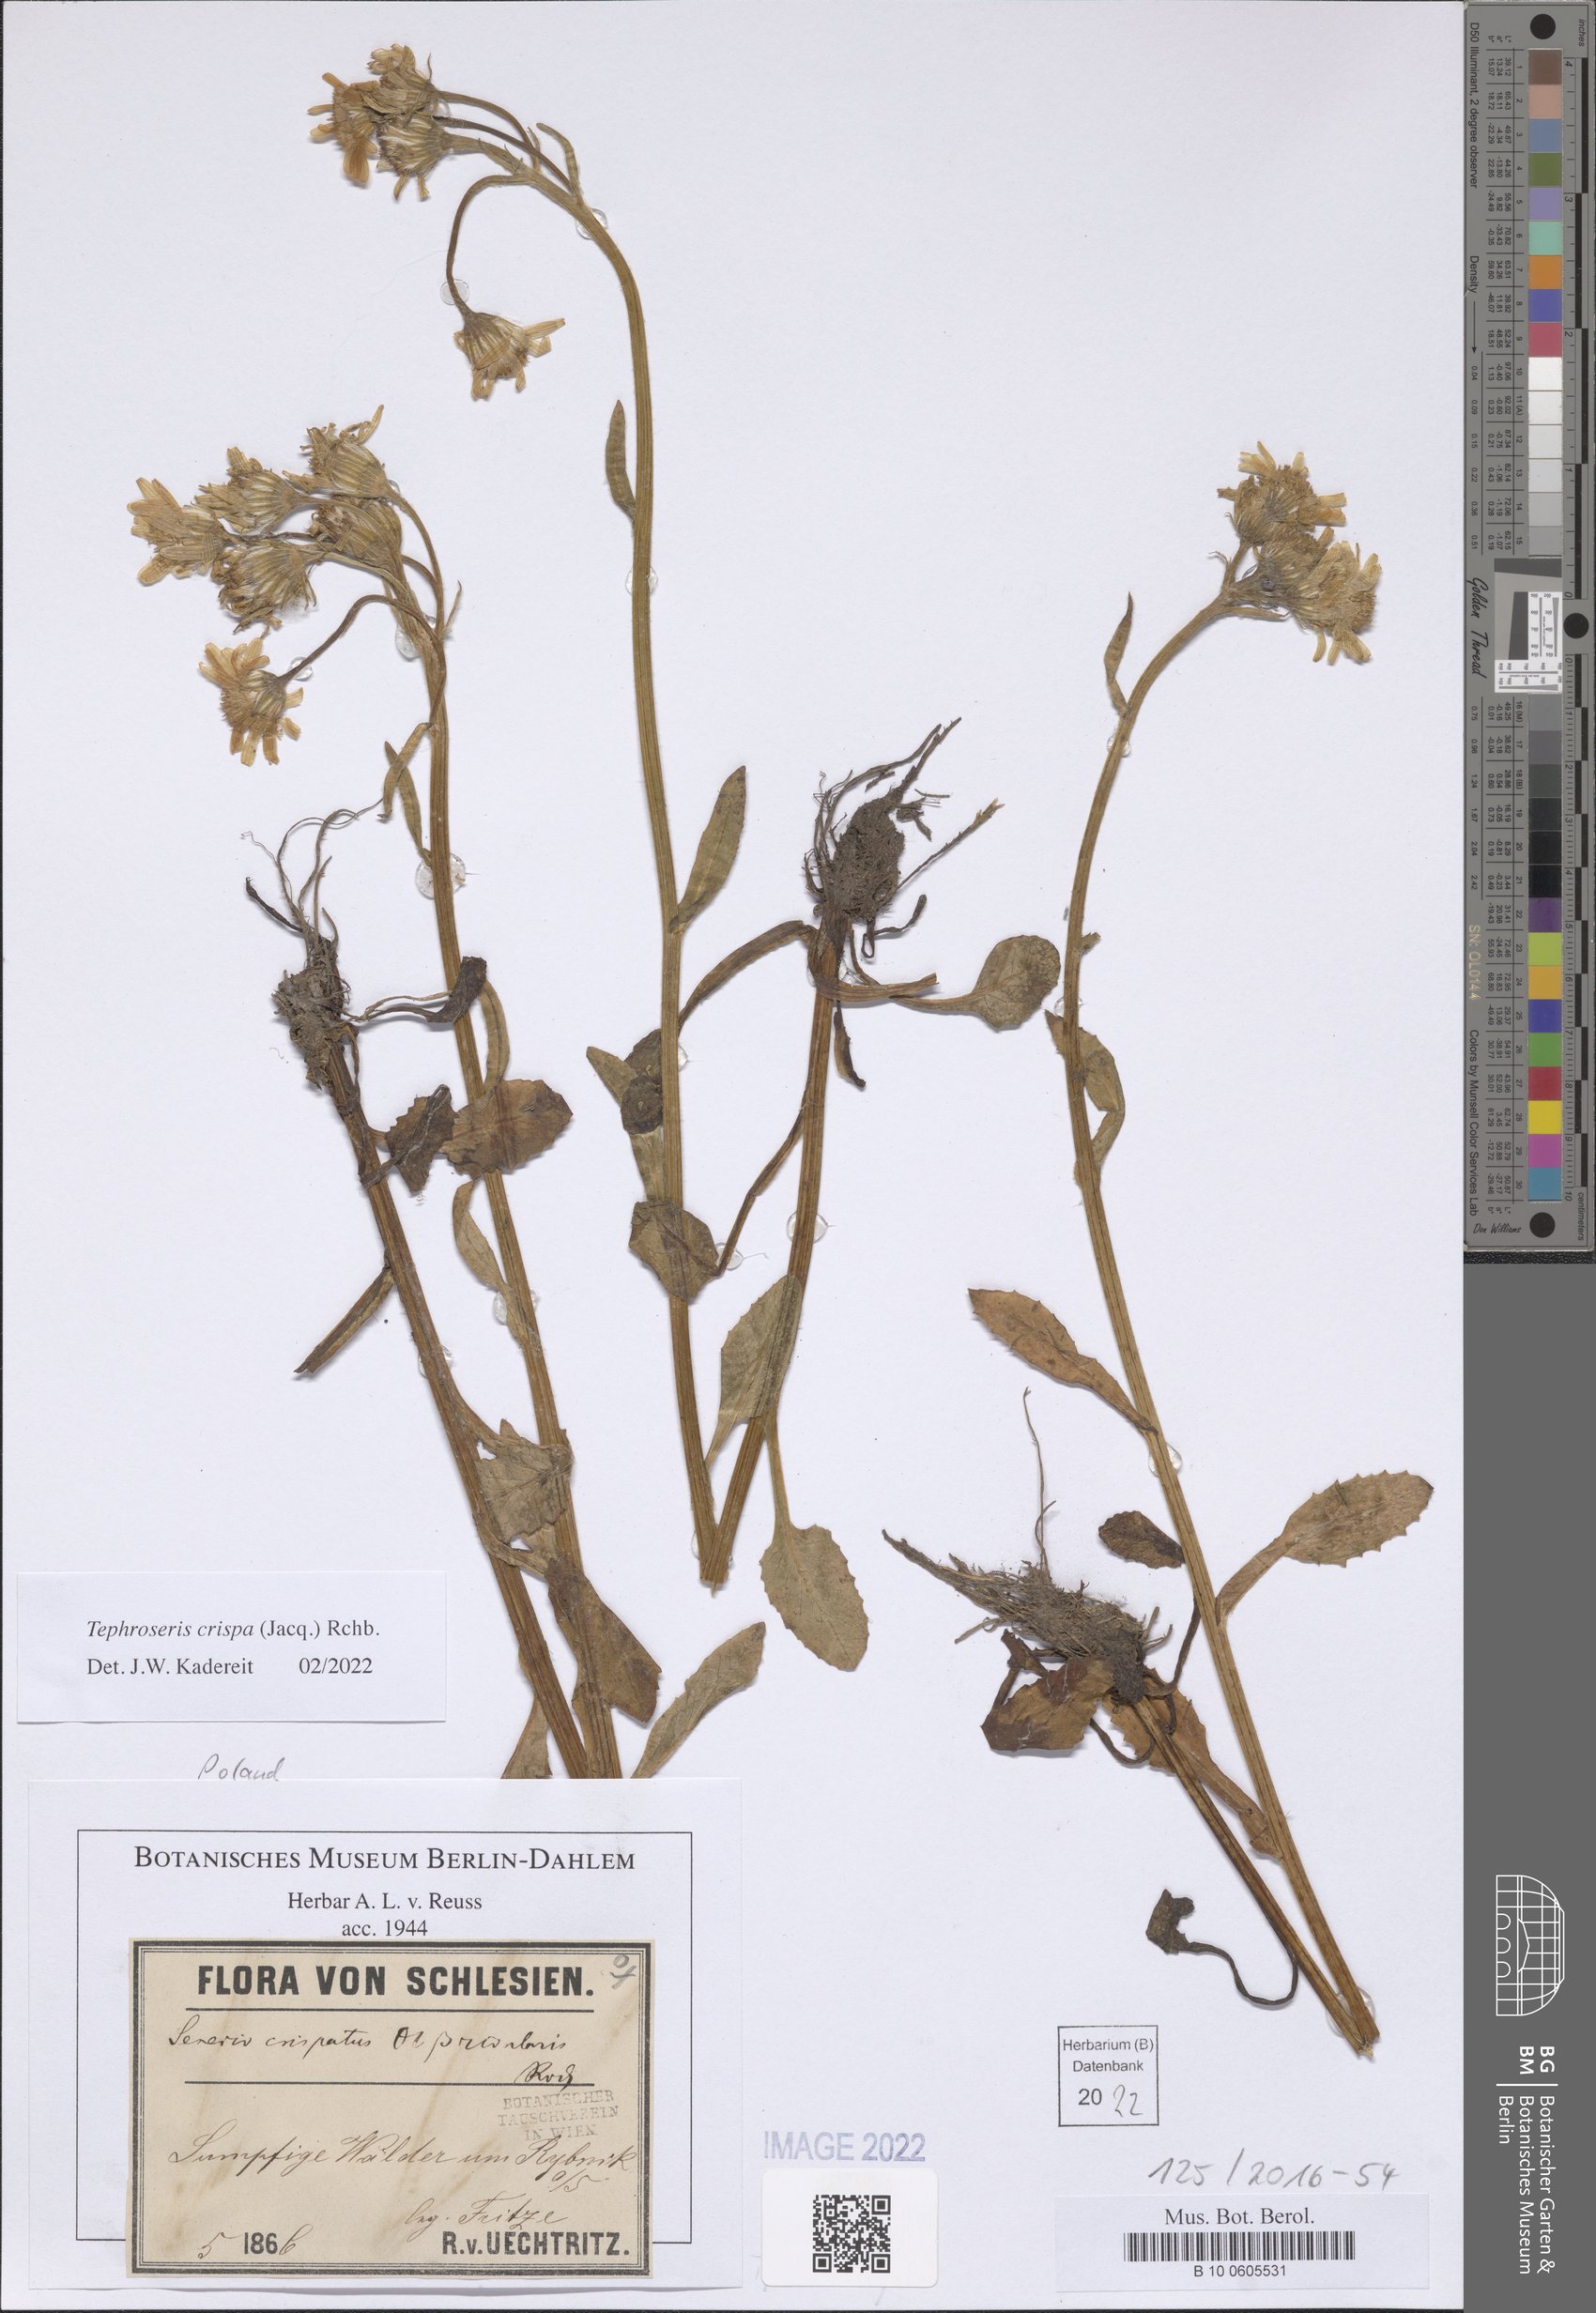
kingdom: Plantae
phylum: Tracheophyta
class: Magnoliopsida
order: Asterales
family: Asteraceae
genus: Tephroseris
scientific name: Tephroseris crispa
